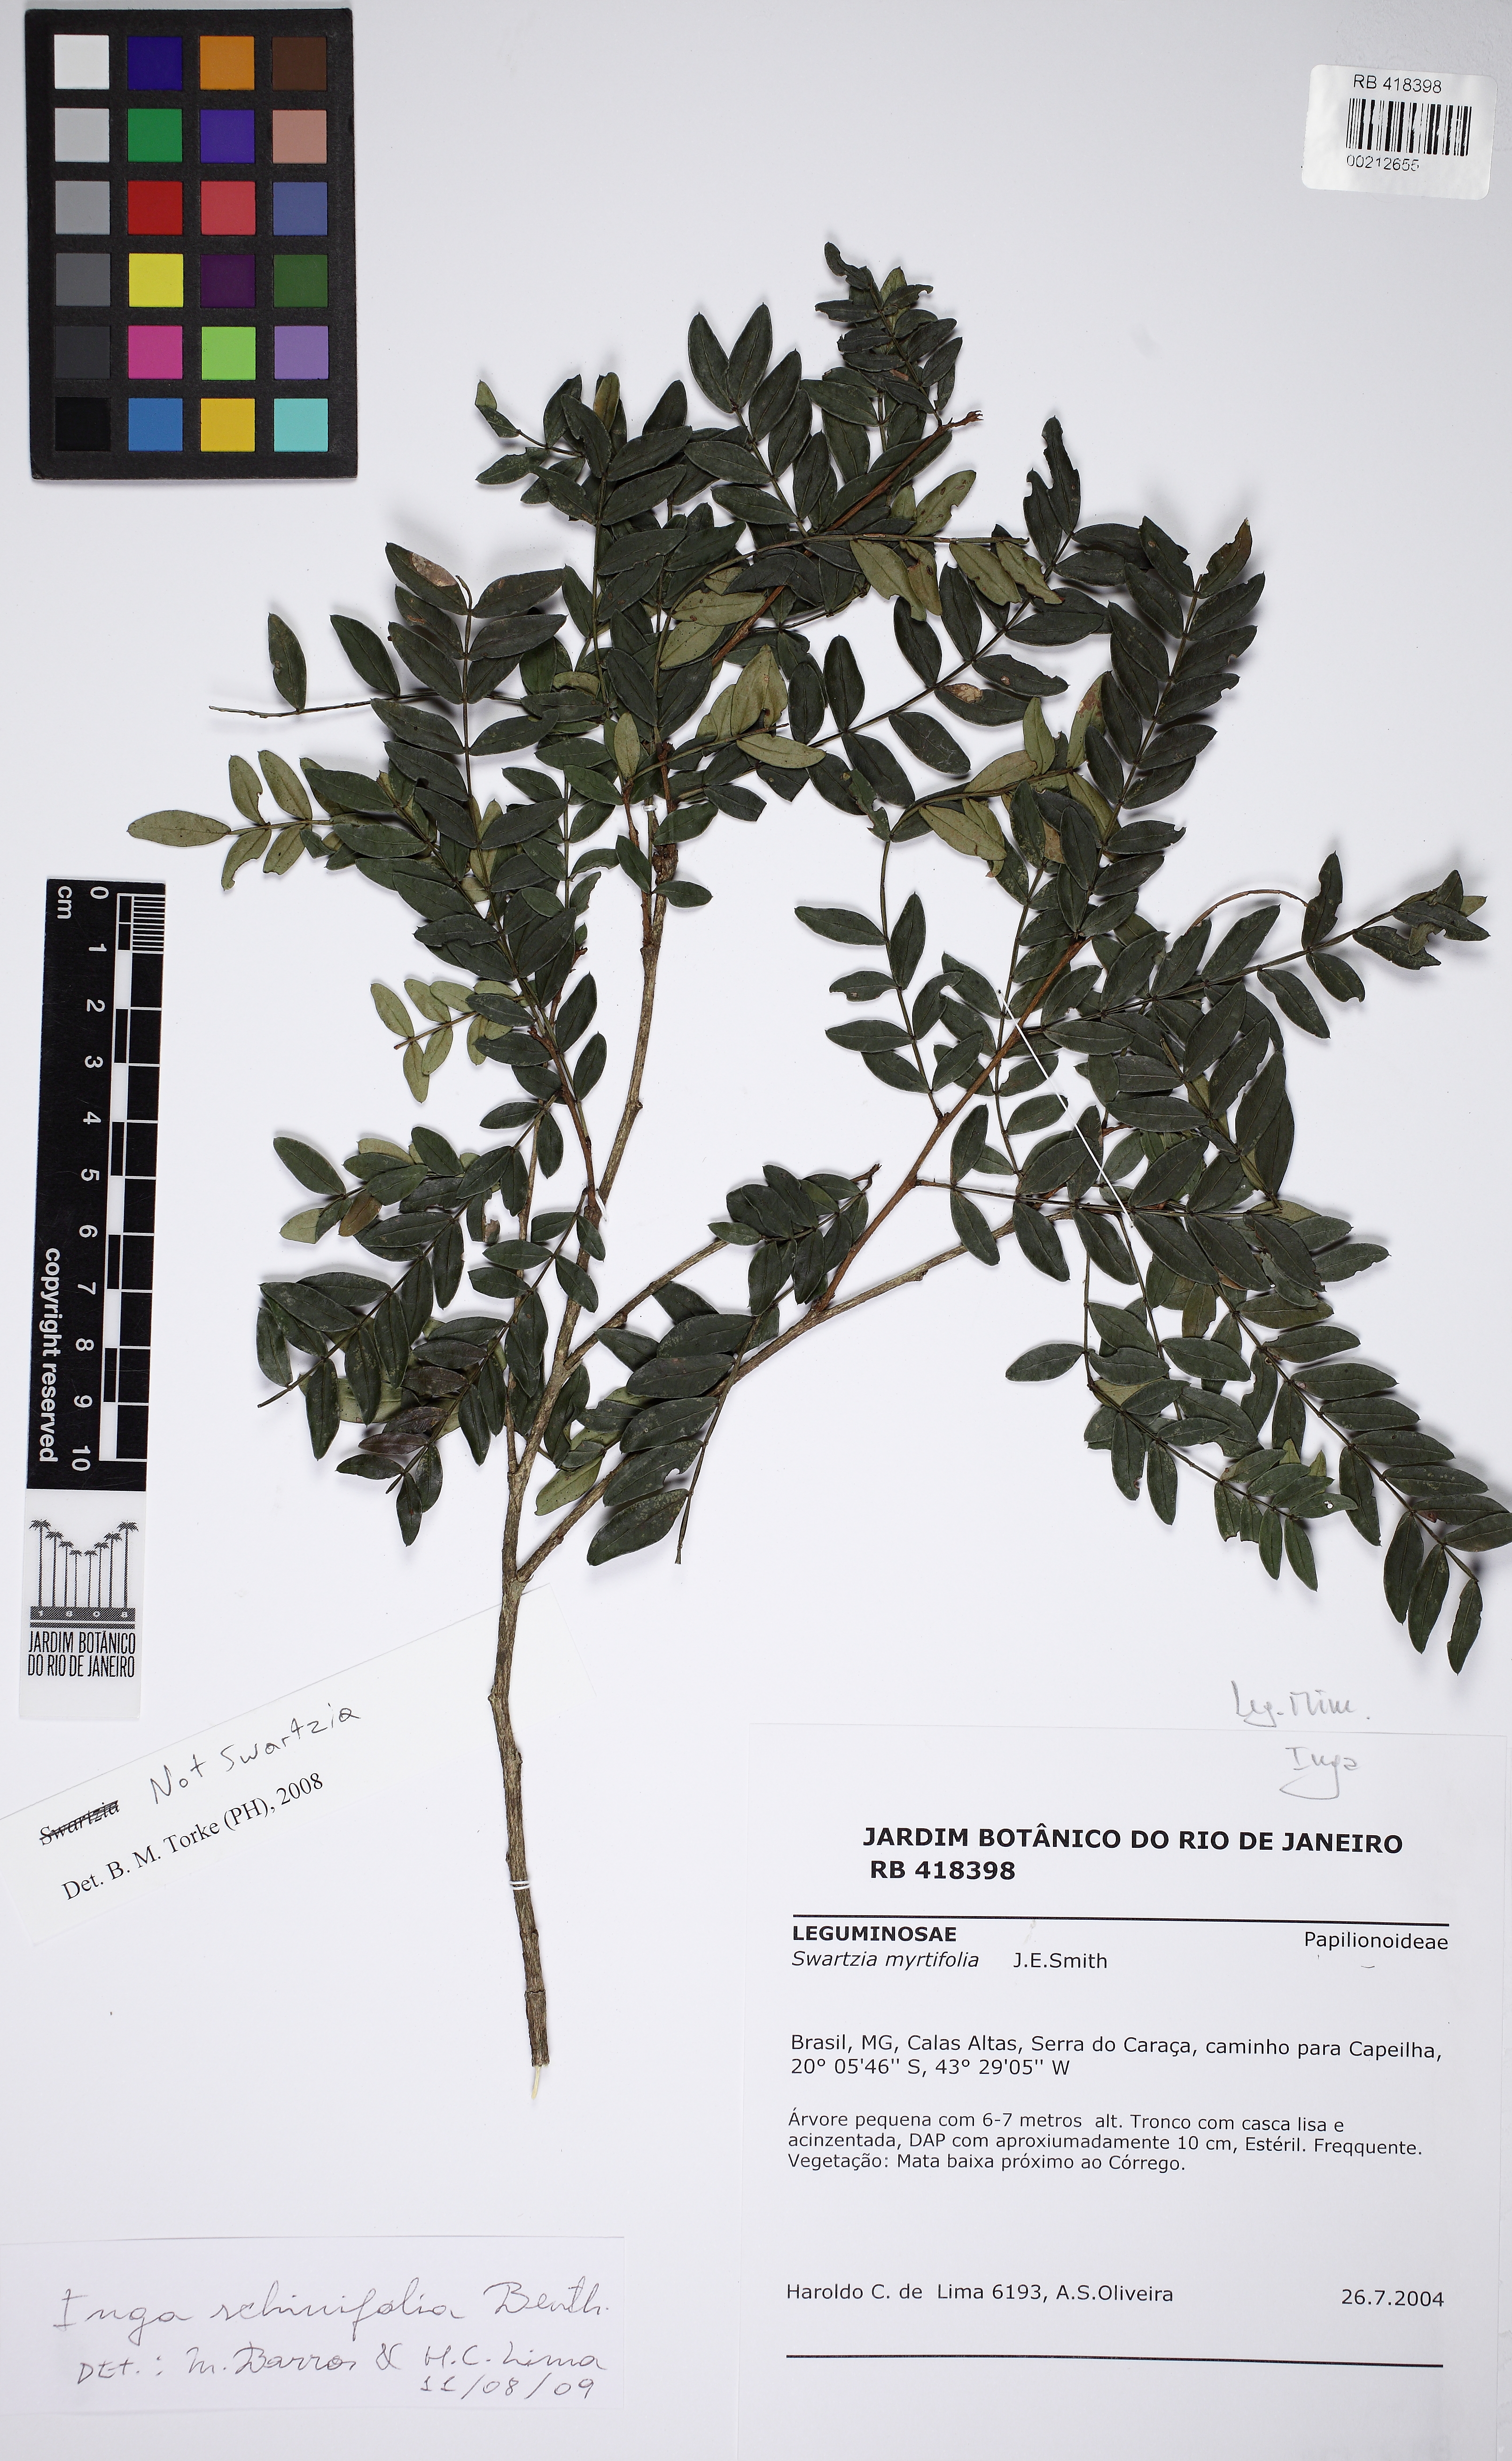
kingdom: Plantae
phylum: Tracheophyta
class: Magnoliopsida
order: Fabales
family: Fabaceae
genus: Inga
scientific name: Inga tenuis
